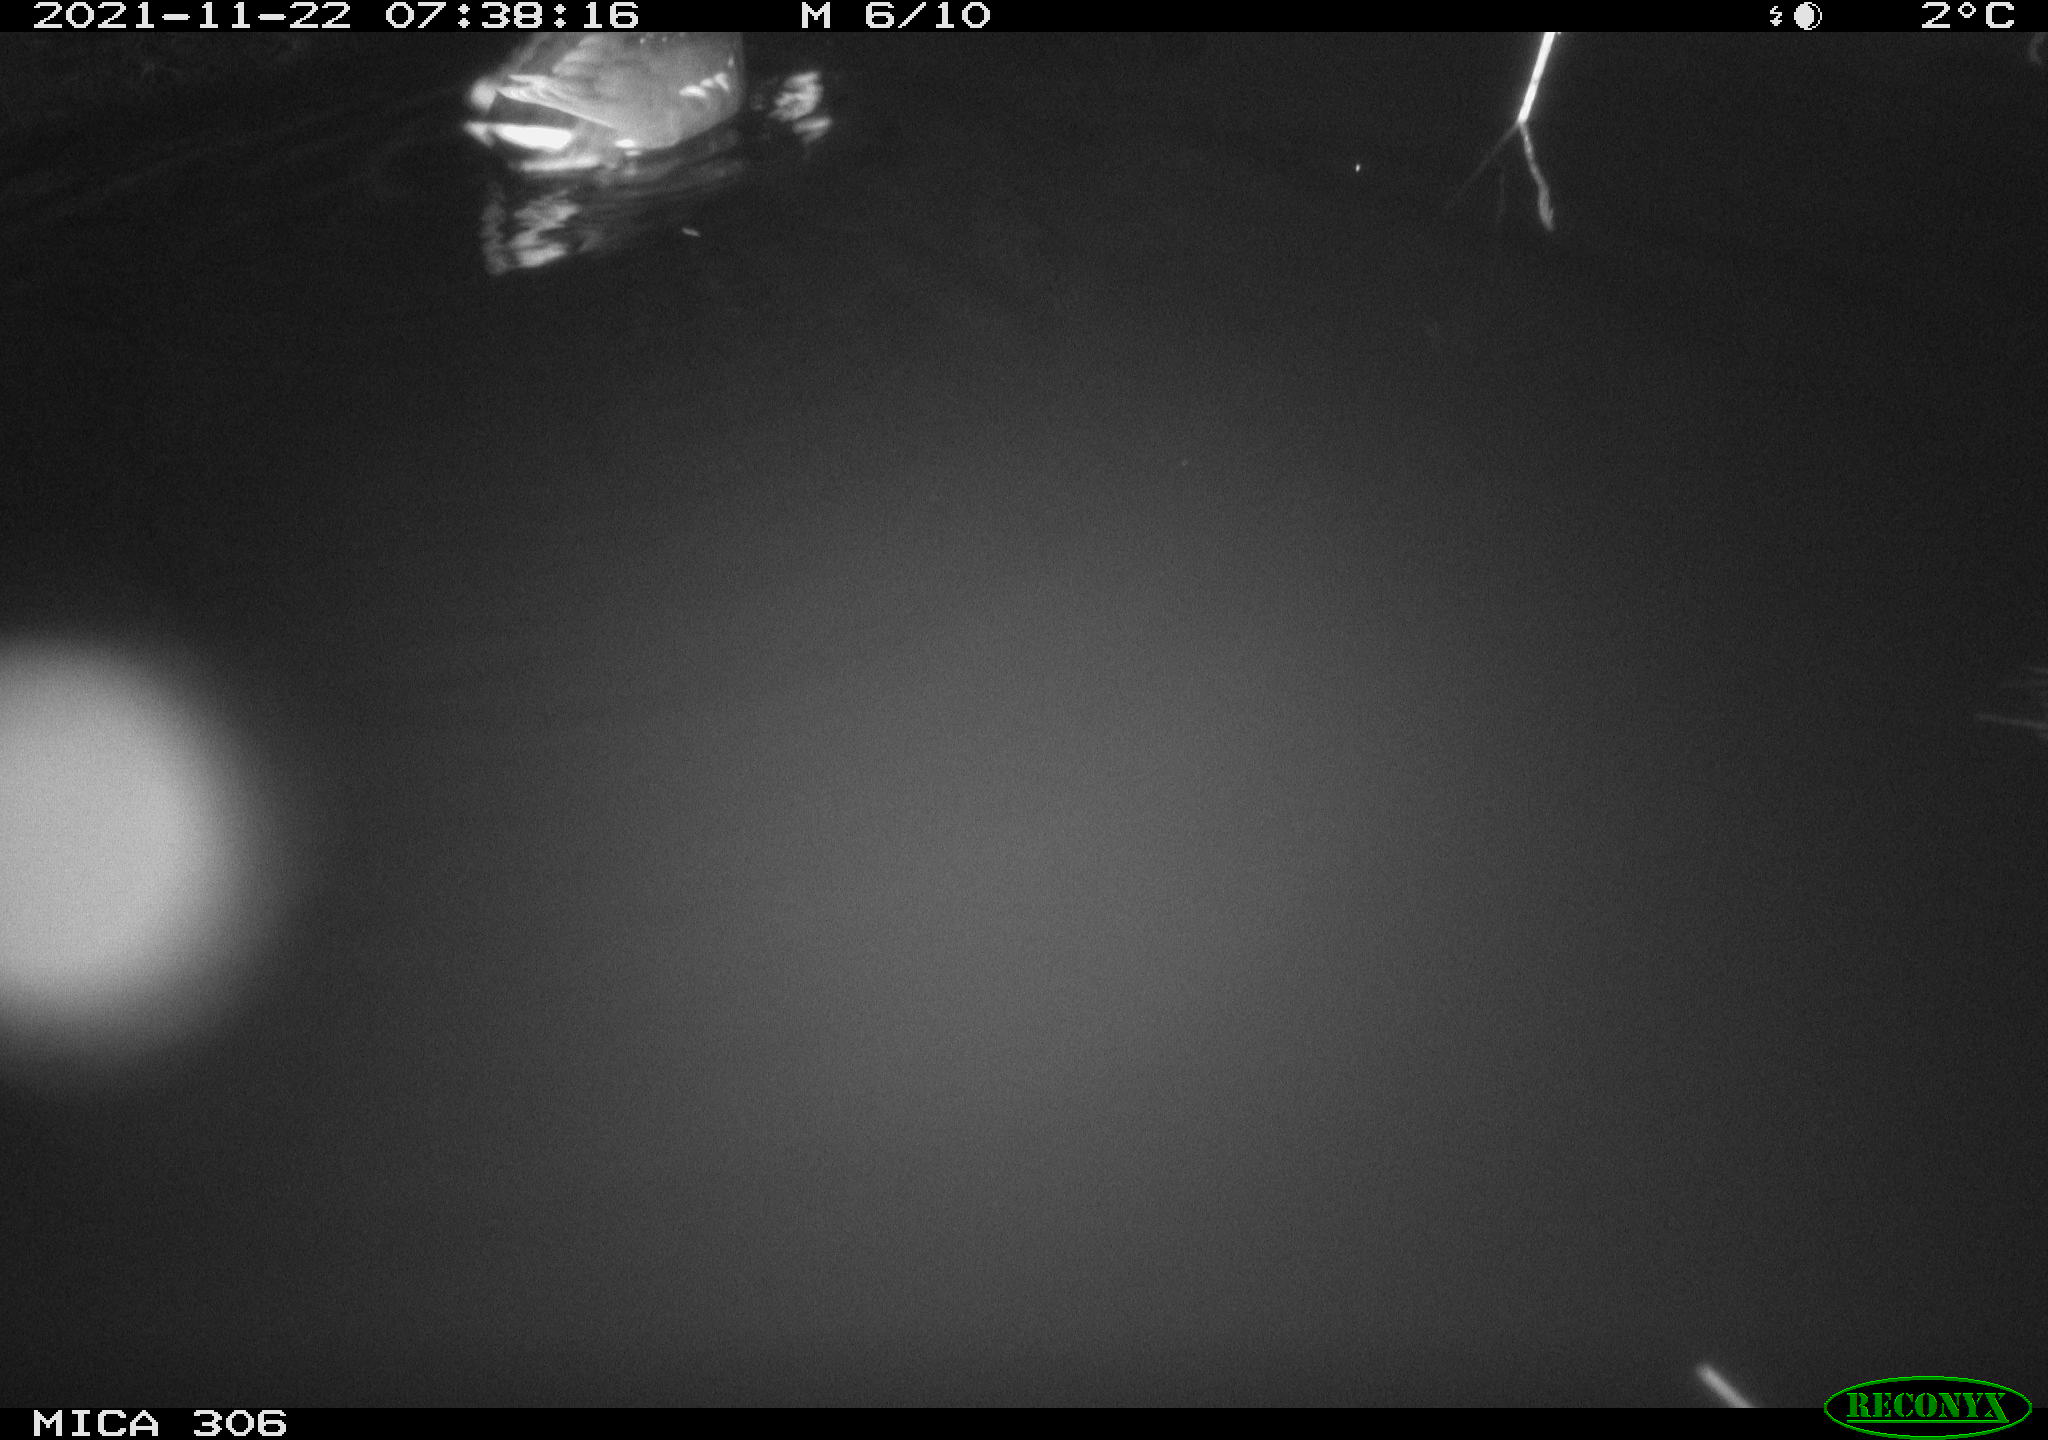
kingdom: Animalia
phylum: Chordata
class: Aves
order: Gruiformes
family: Rallidae
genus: Fulica
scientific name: Fulica atra
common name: Eurasian coot
